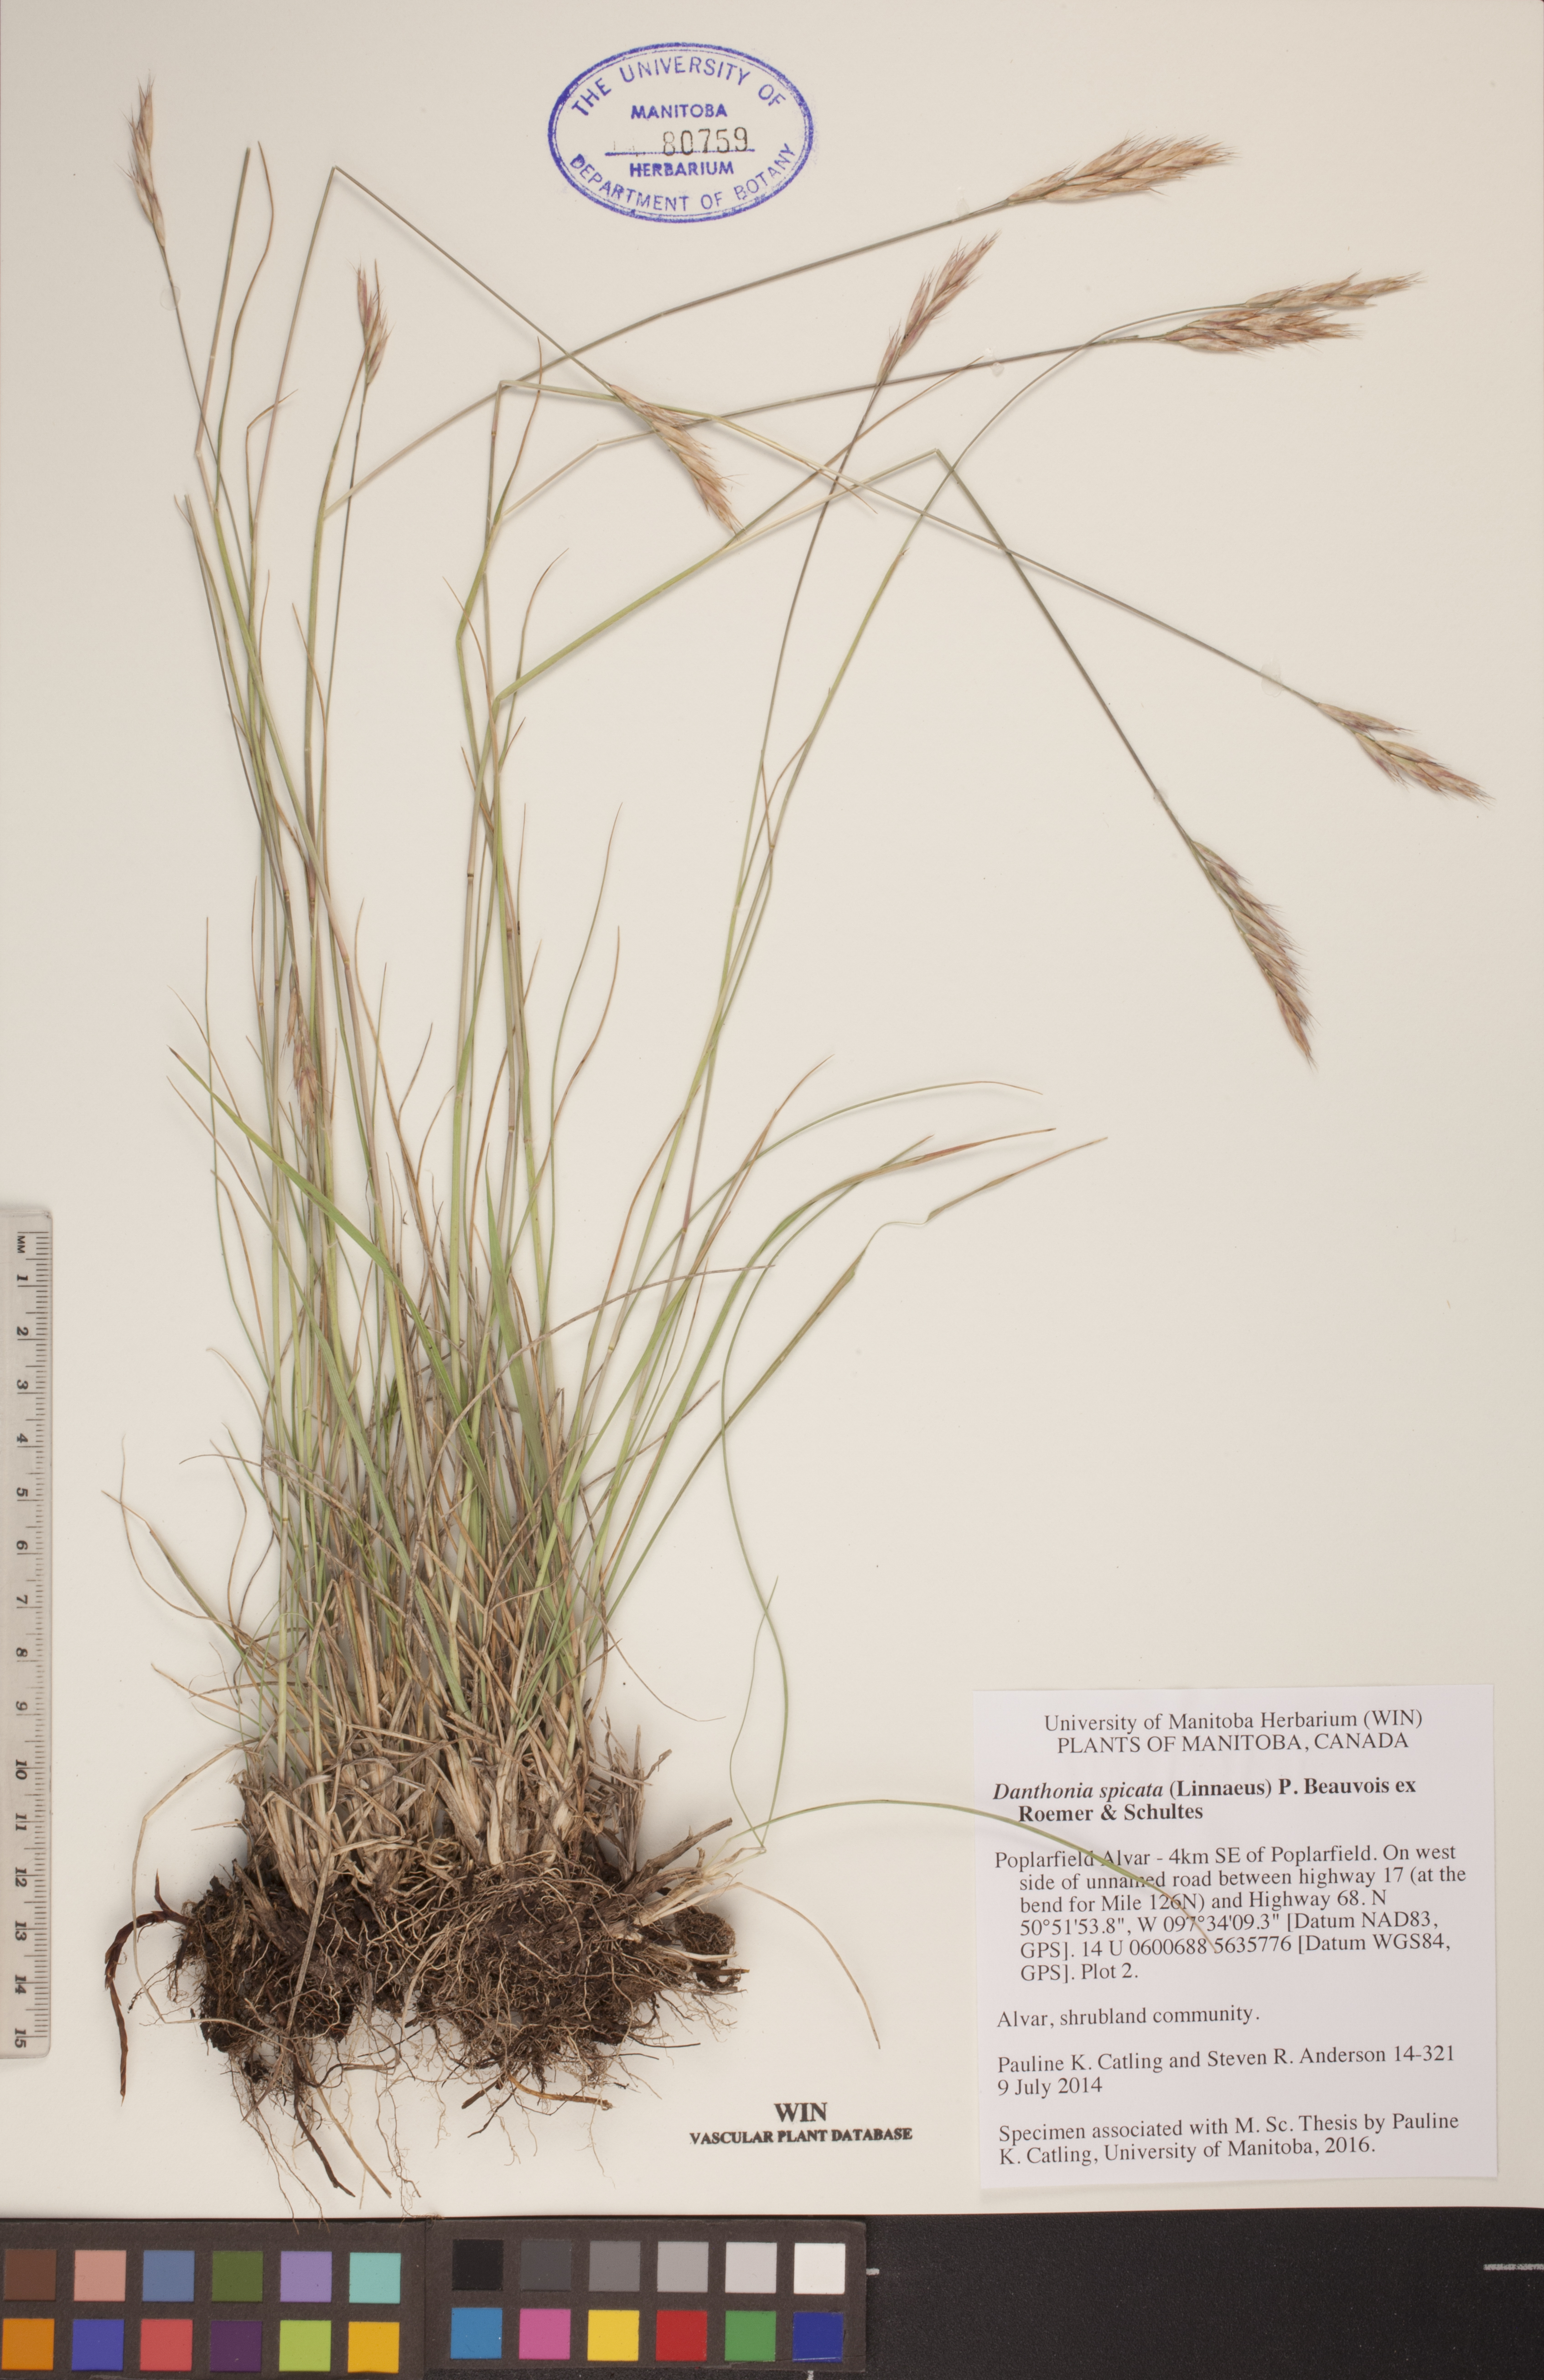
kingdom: Plantae
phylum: Tracheophyta
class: Liliopsida
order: Poales
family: Poaceae
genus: Danthonia
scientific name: Danthonia spicata
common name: Common wild oatgrass
